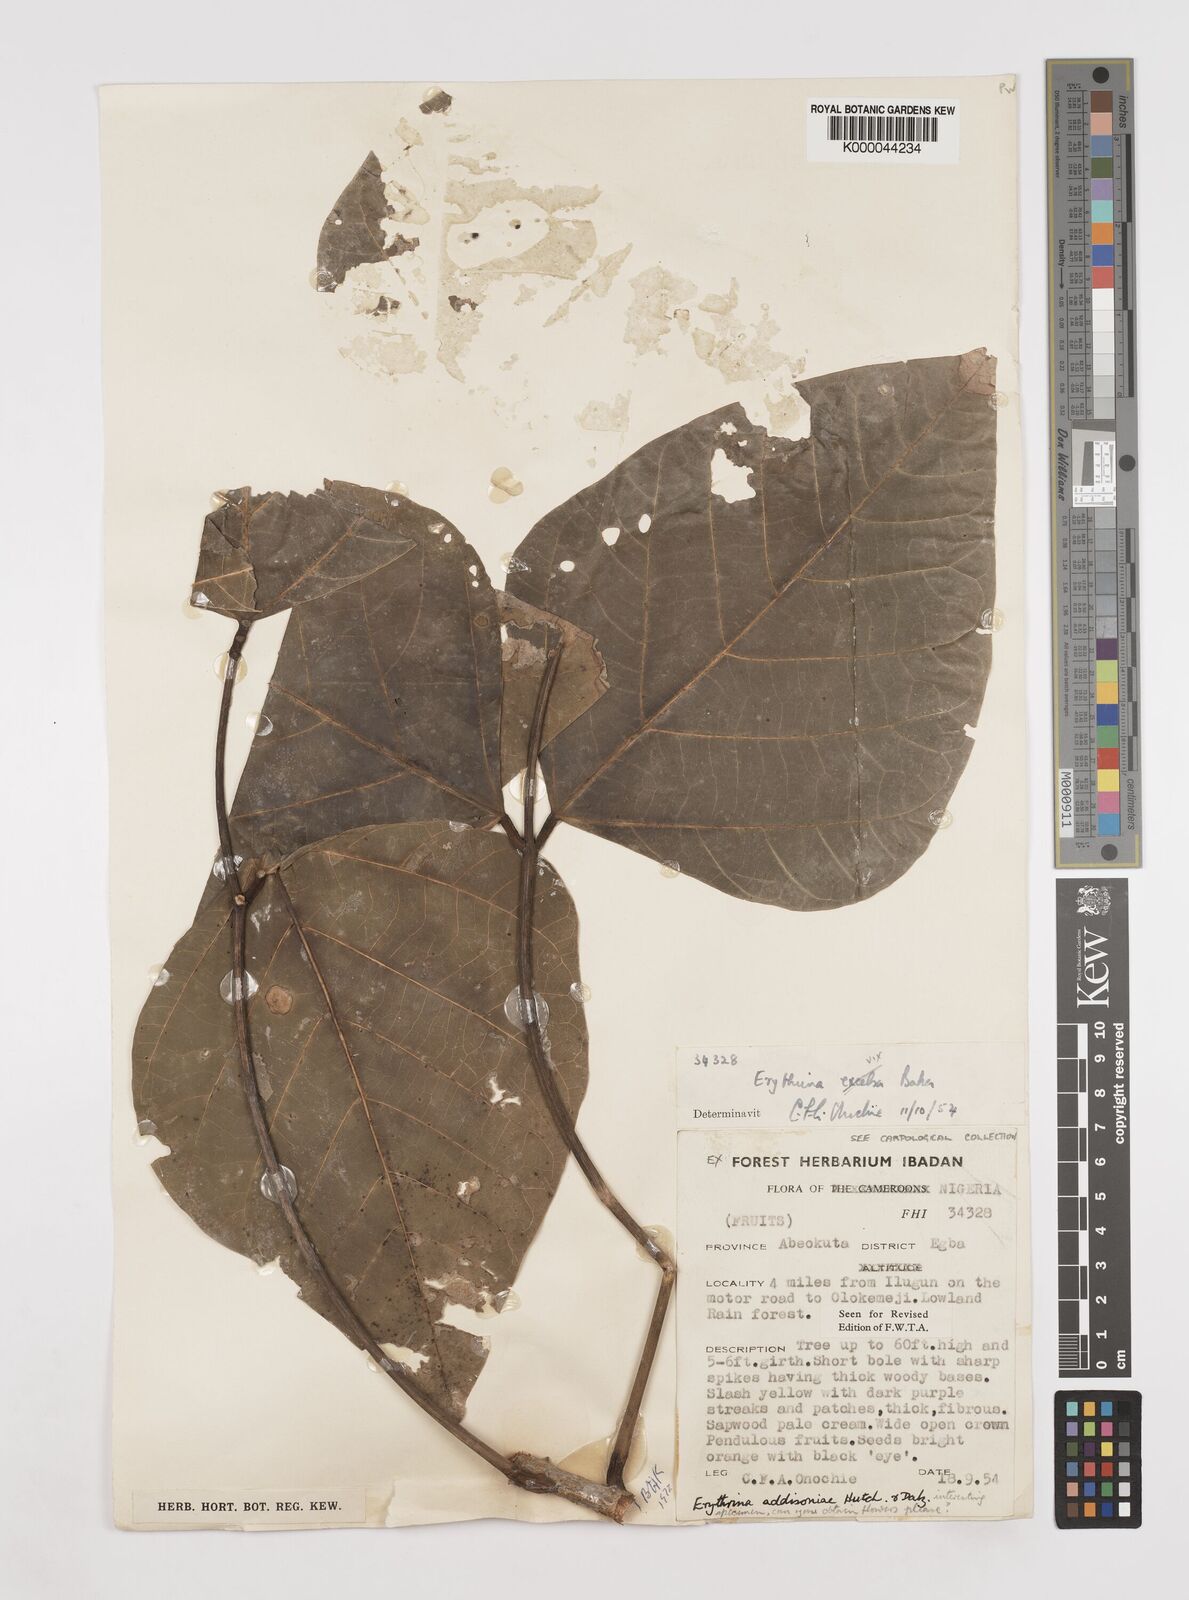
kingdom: Plantae
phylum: Tracheophyta
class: Magnoliopsida
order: Fabales
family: Fabaceae
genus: Erythrina
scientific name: Erythrina addisoniae
